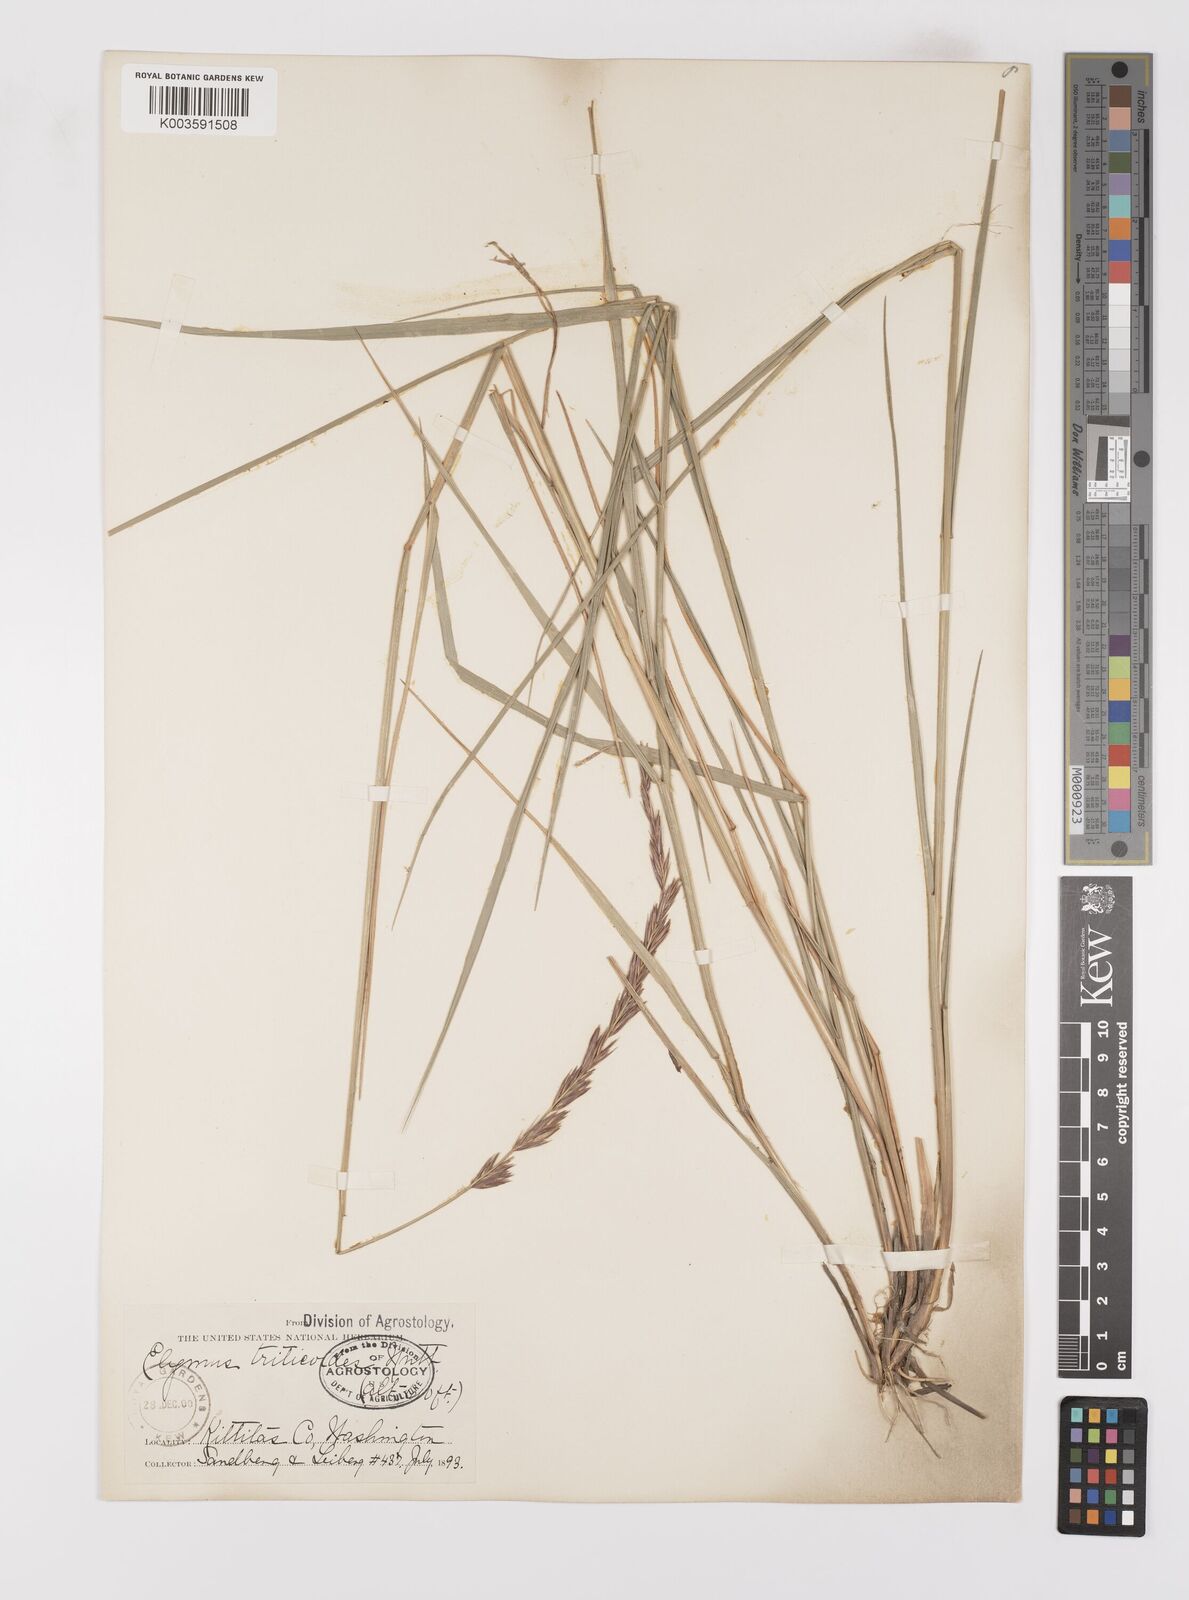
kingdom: Plantae
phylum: Tracheophyta
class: Liliopsida
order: Poales
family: Poaceae
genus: Leymus
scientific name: Leymus triticoides
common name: Beardless wild rye
